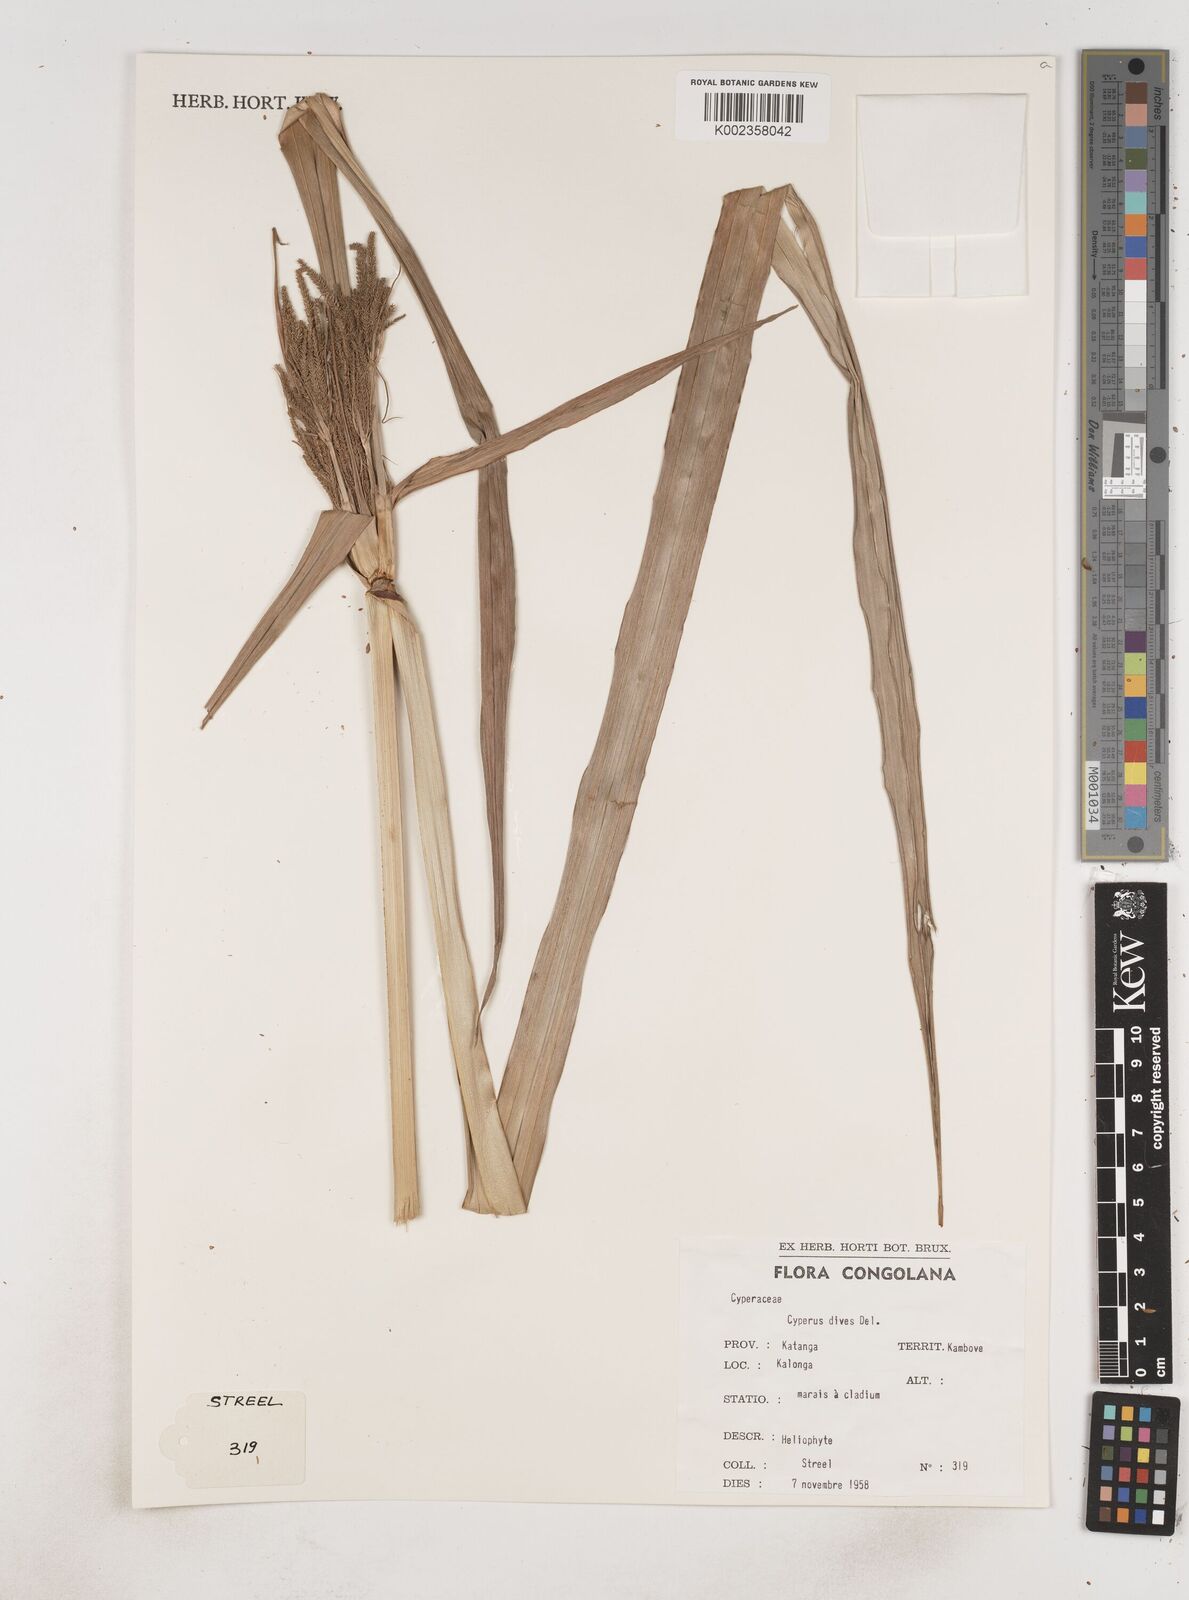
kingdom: Plantae
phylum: Tracheophyta
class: Liliopsida
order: Poales
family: Cyperaceae
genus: Cyperus
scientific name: Cyperus dives
